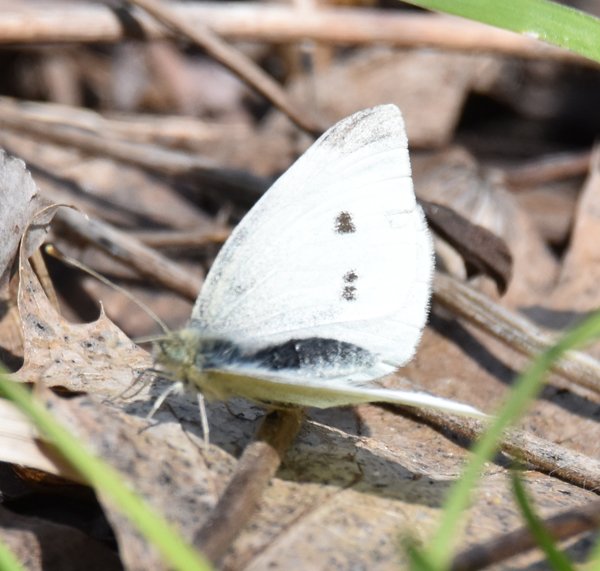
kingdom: Animalia
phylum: Arthropoda
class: Insecta
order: Lepidoptera
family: Pieridae
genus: Pieris
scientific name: Pieris rapae
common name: Cabbage White
